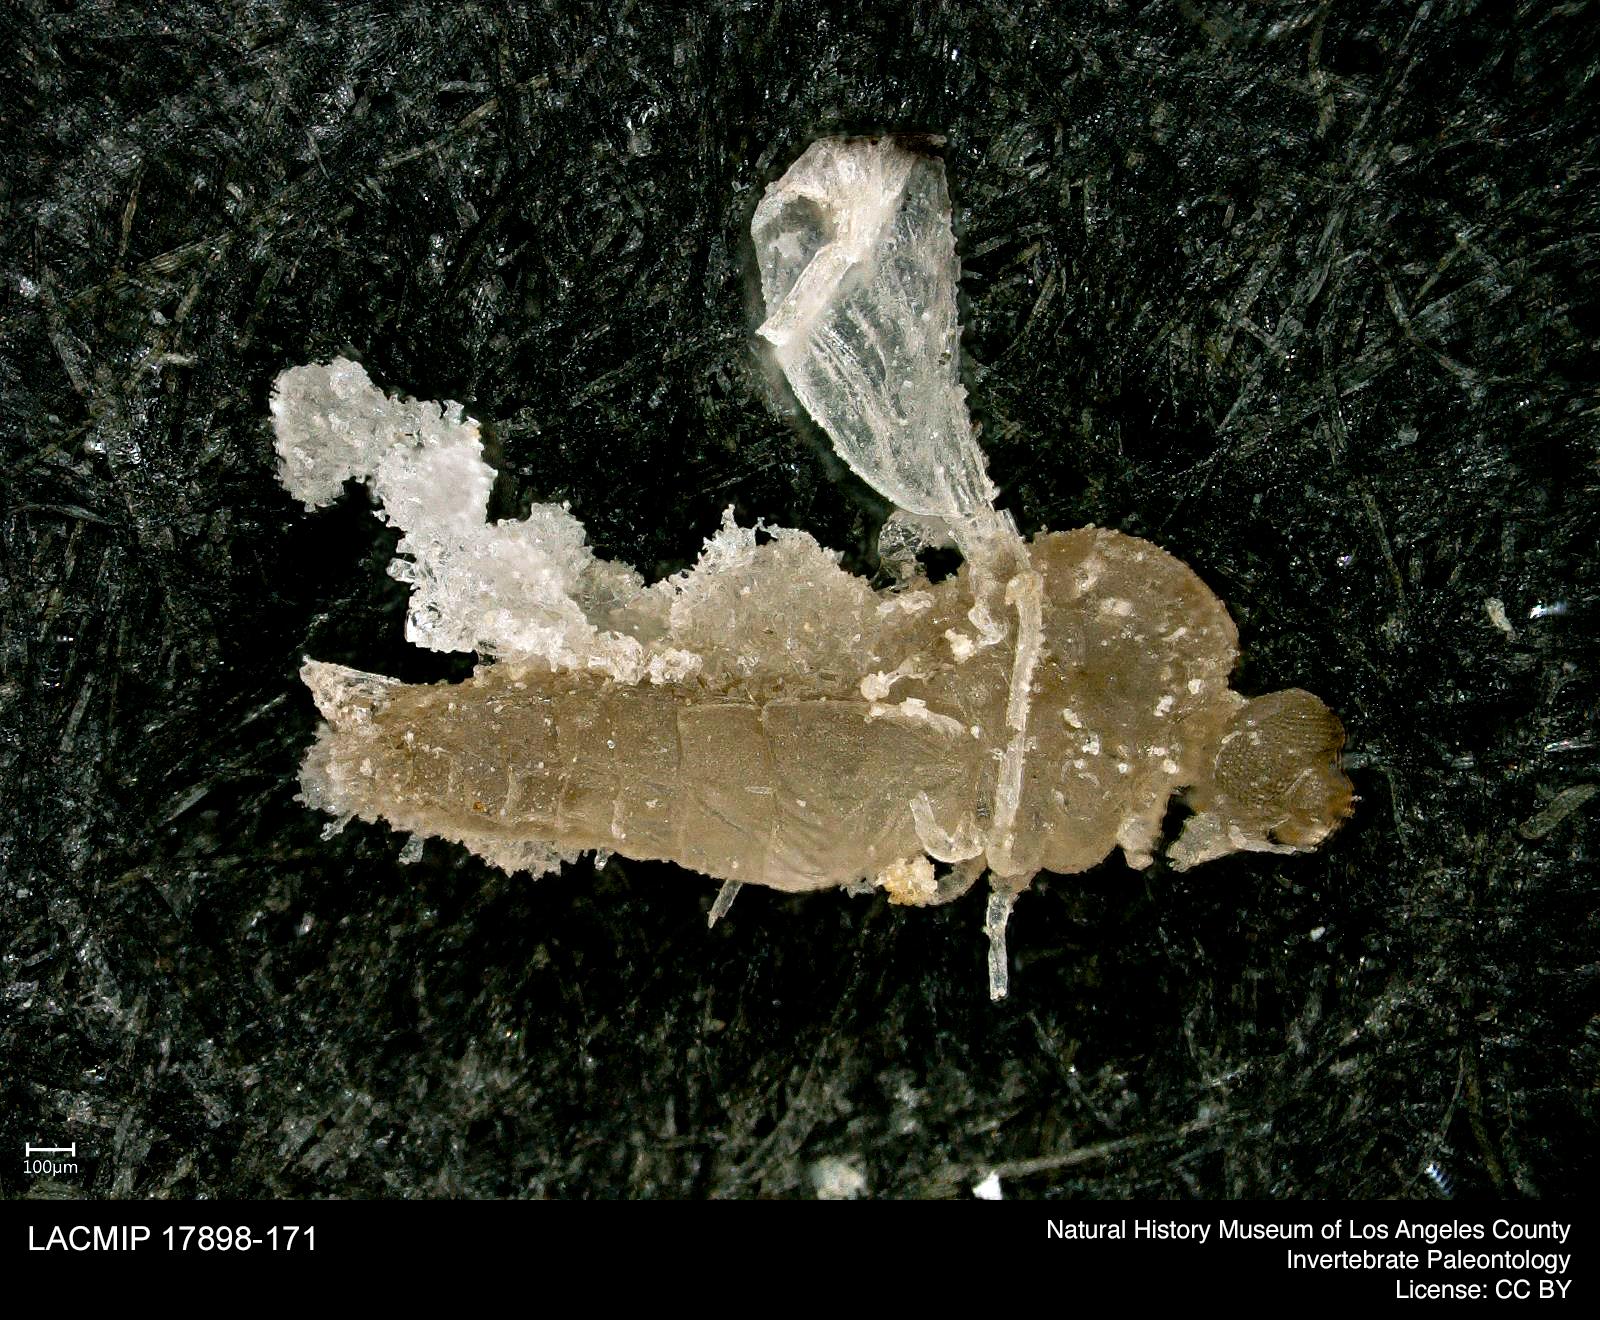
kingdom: Animalia
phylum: Arthropoda
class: Insecta
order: Diptera
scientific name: Diptera
